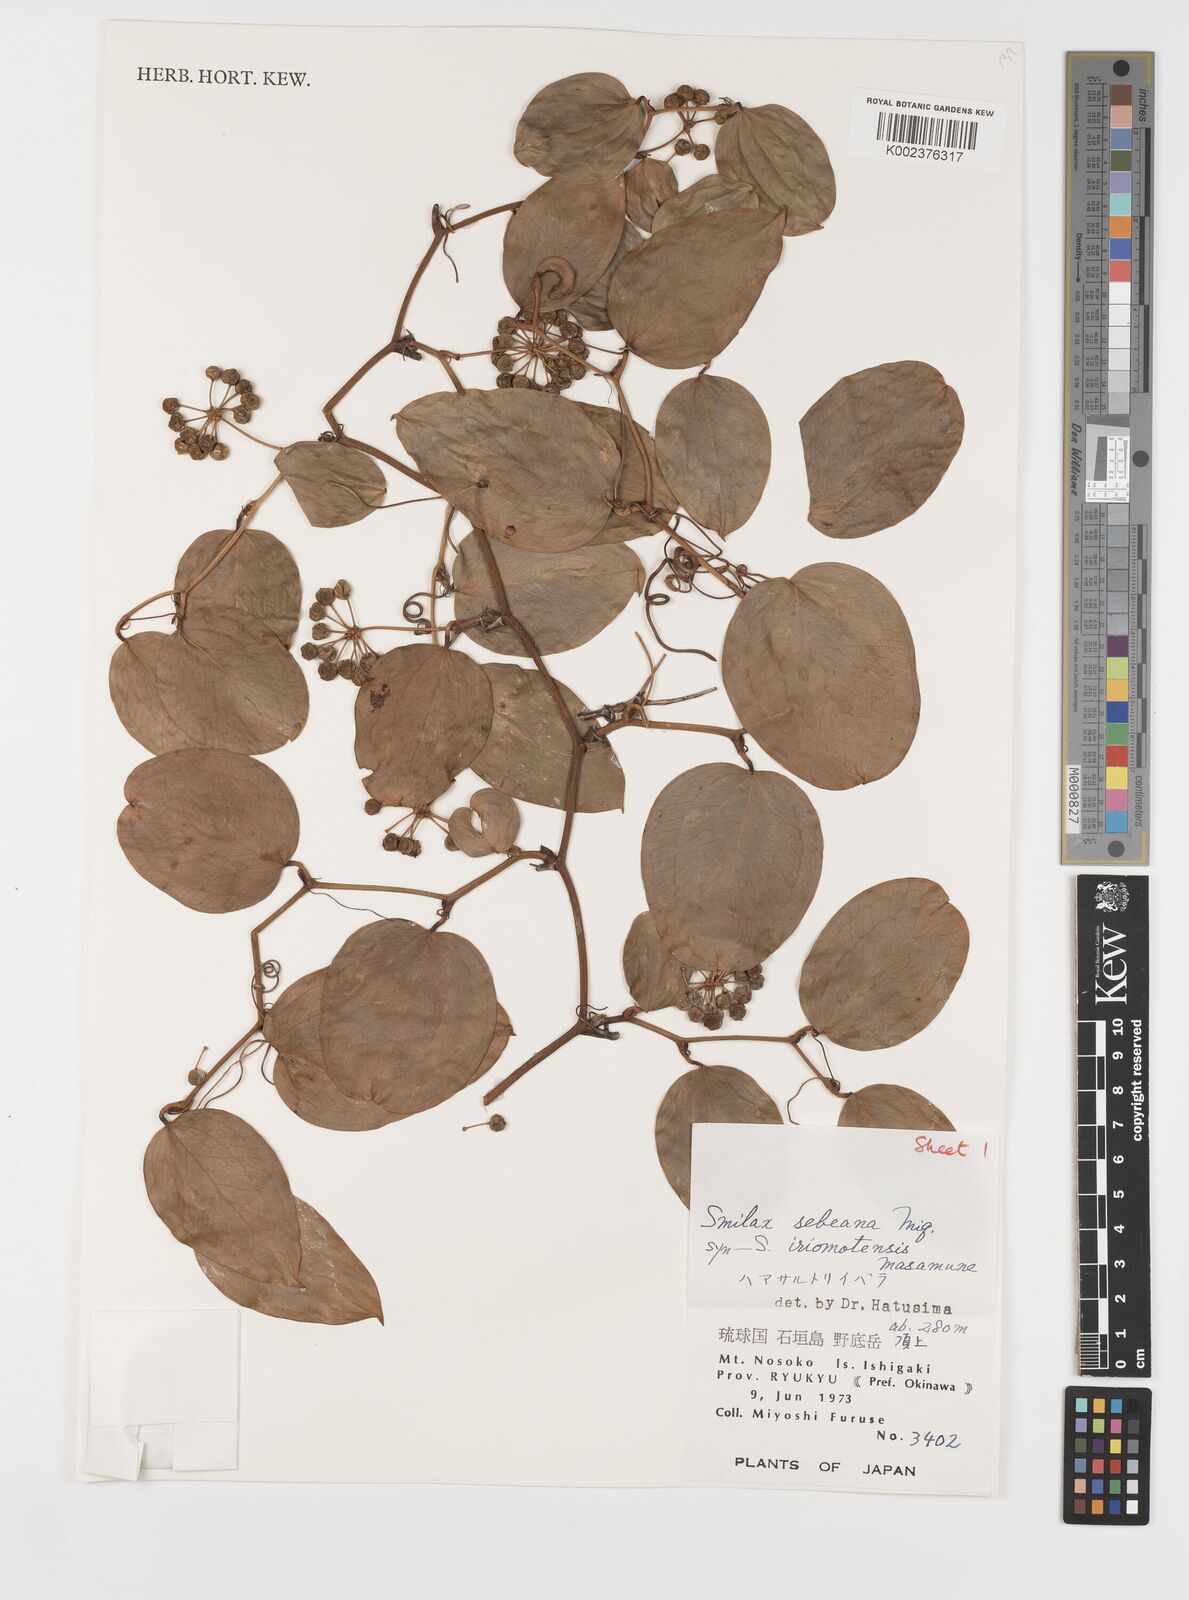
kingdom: Plantae
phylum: Tracheophyta
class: Liliopsida
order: Liliales
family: Smilacaceae
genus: Smilax
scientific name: Smilax sebeana
